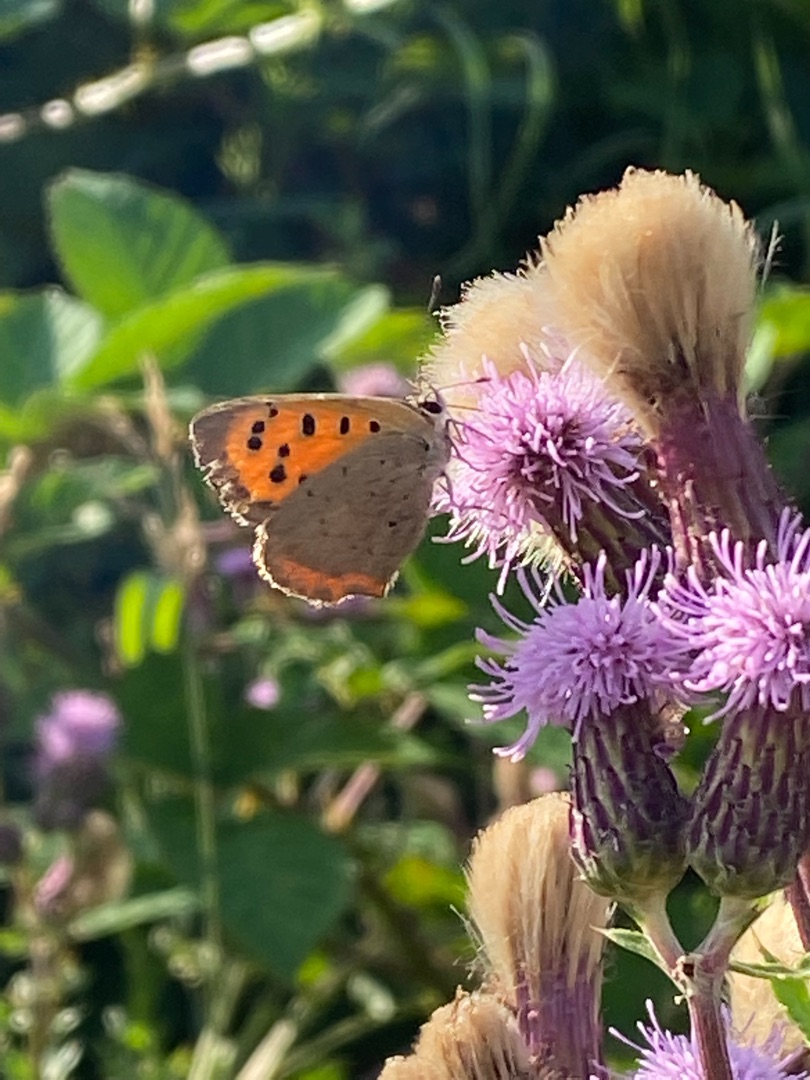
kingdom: Animalia
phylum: Arthropoda
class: Insecta
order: Lepidoptera
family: Lycaenidae
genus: Lycaena
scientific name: Lycaena phlaeas
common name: Lille ildfugl
